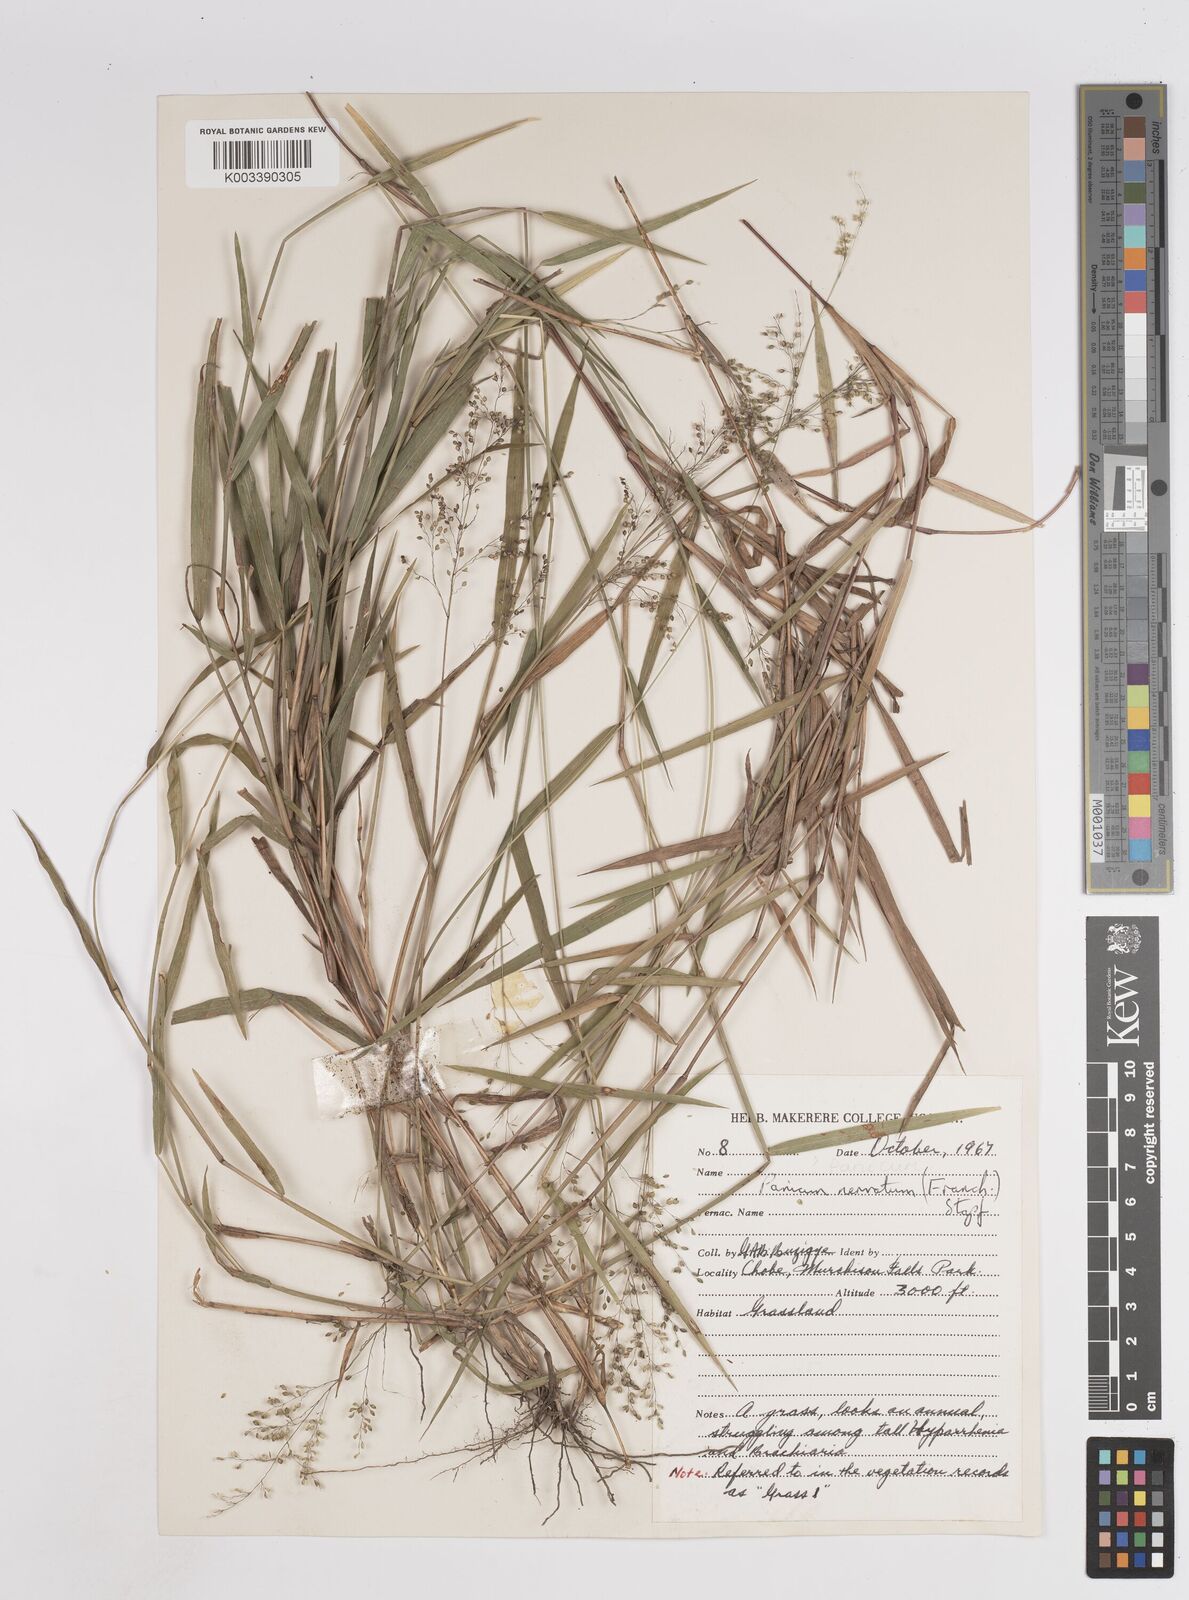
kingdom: Plantae
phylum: Tracheophyta
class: Liliopsida
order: Poales
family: Poaceae
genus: Trichanthecium
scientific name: Trichanthecium nervatum
